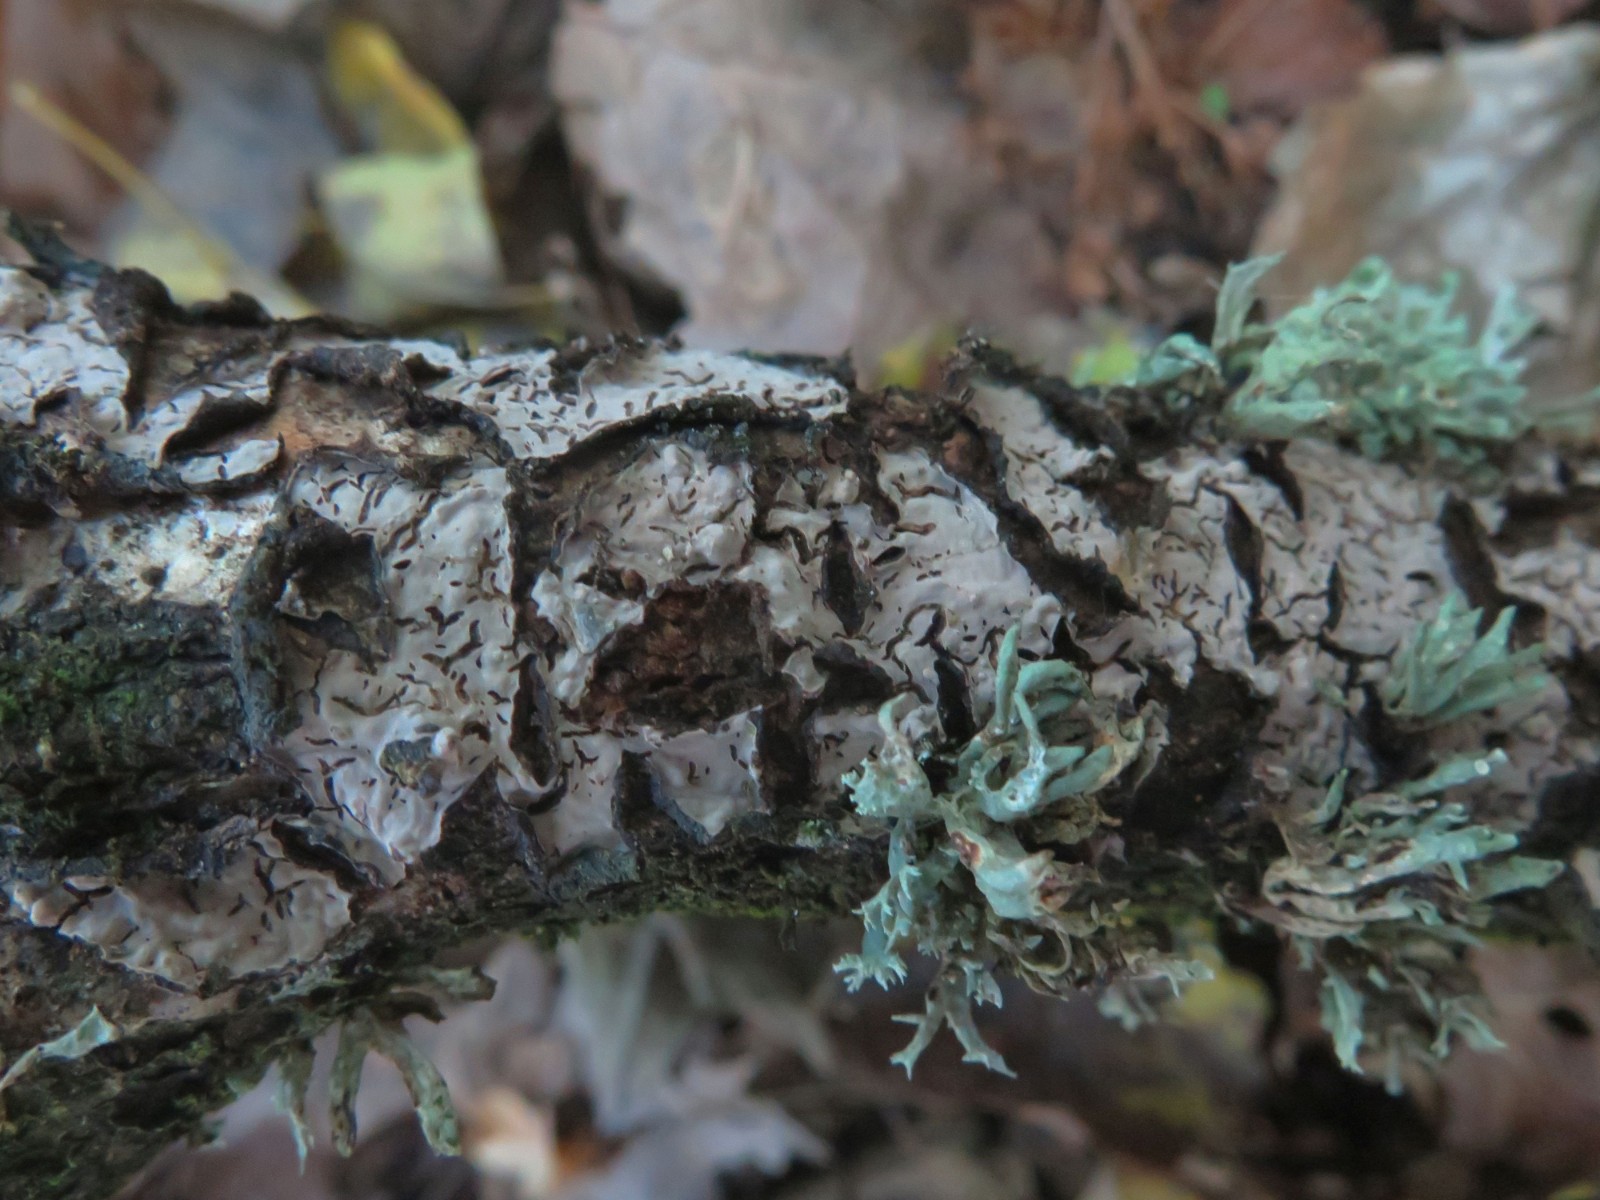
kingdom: Fungi
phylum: Basidiomycota
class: Agaricomycetes
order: Russulales
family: Peniophoraceae
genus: Peniophora
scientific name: Peniophora quercina
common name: ege-voksskind
